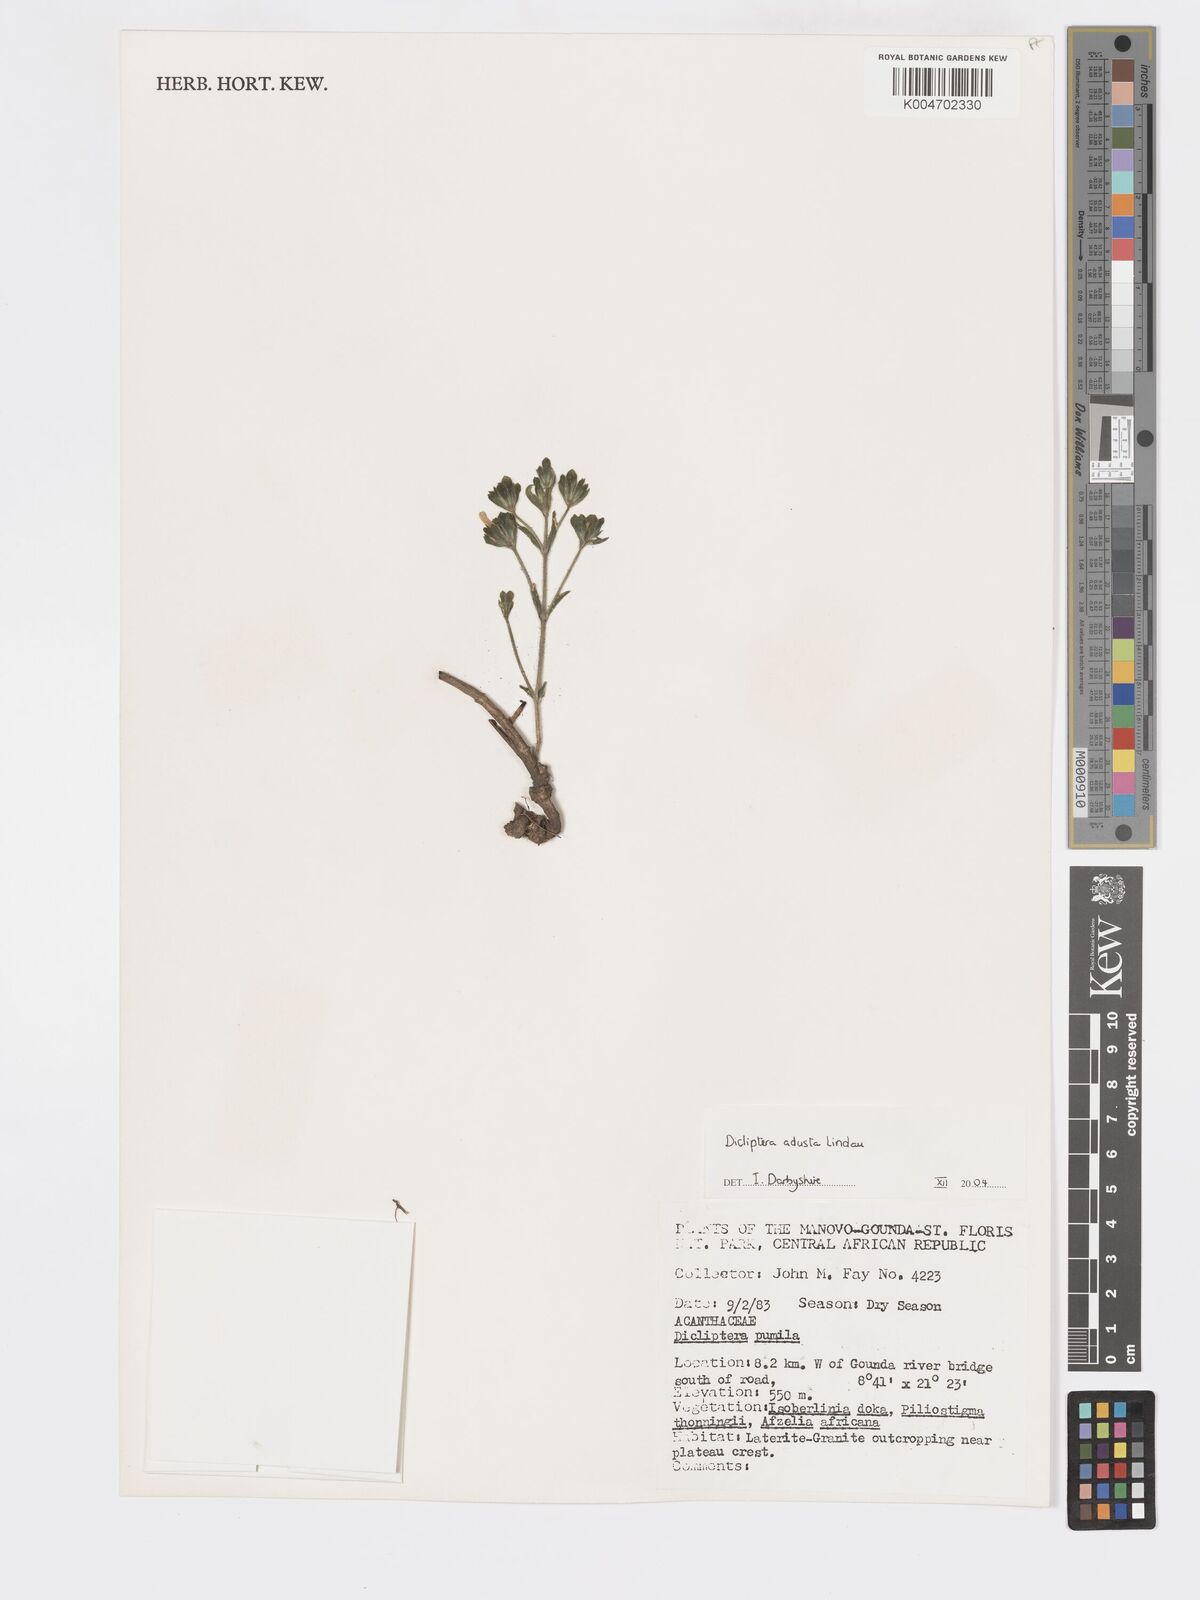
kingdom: Plantae
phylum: Tracheophyta
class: Magnoliopsida
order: Lamiales
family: Acanthaceae
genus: Dicliptera
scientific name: Dicliptera pumila
